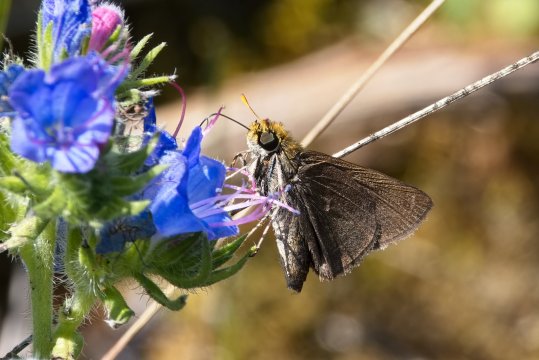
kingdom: Animalia
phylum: Arthropoda
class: Insecta
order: Lepidoptera
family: Hesperiidae
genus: Euphyes
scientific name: Euphyes vestris
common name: Dun Skipper
